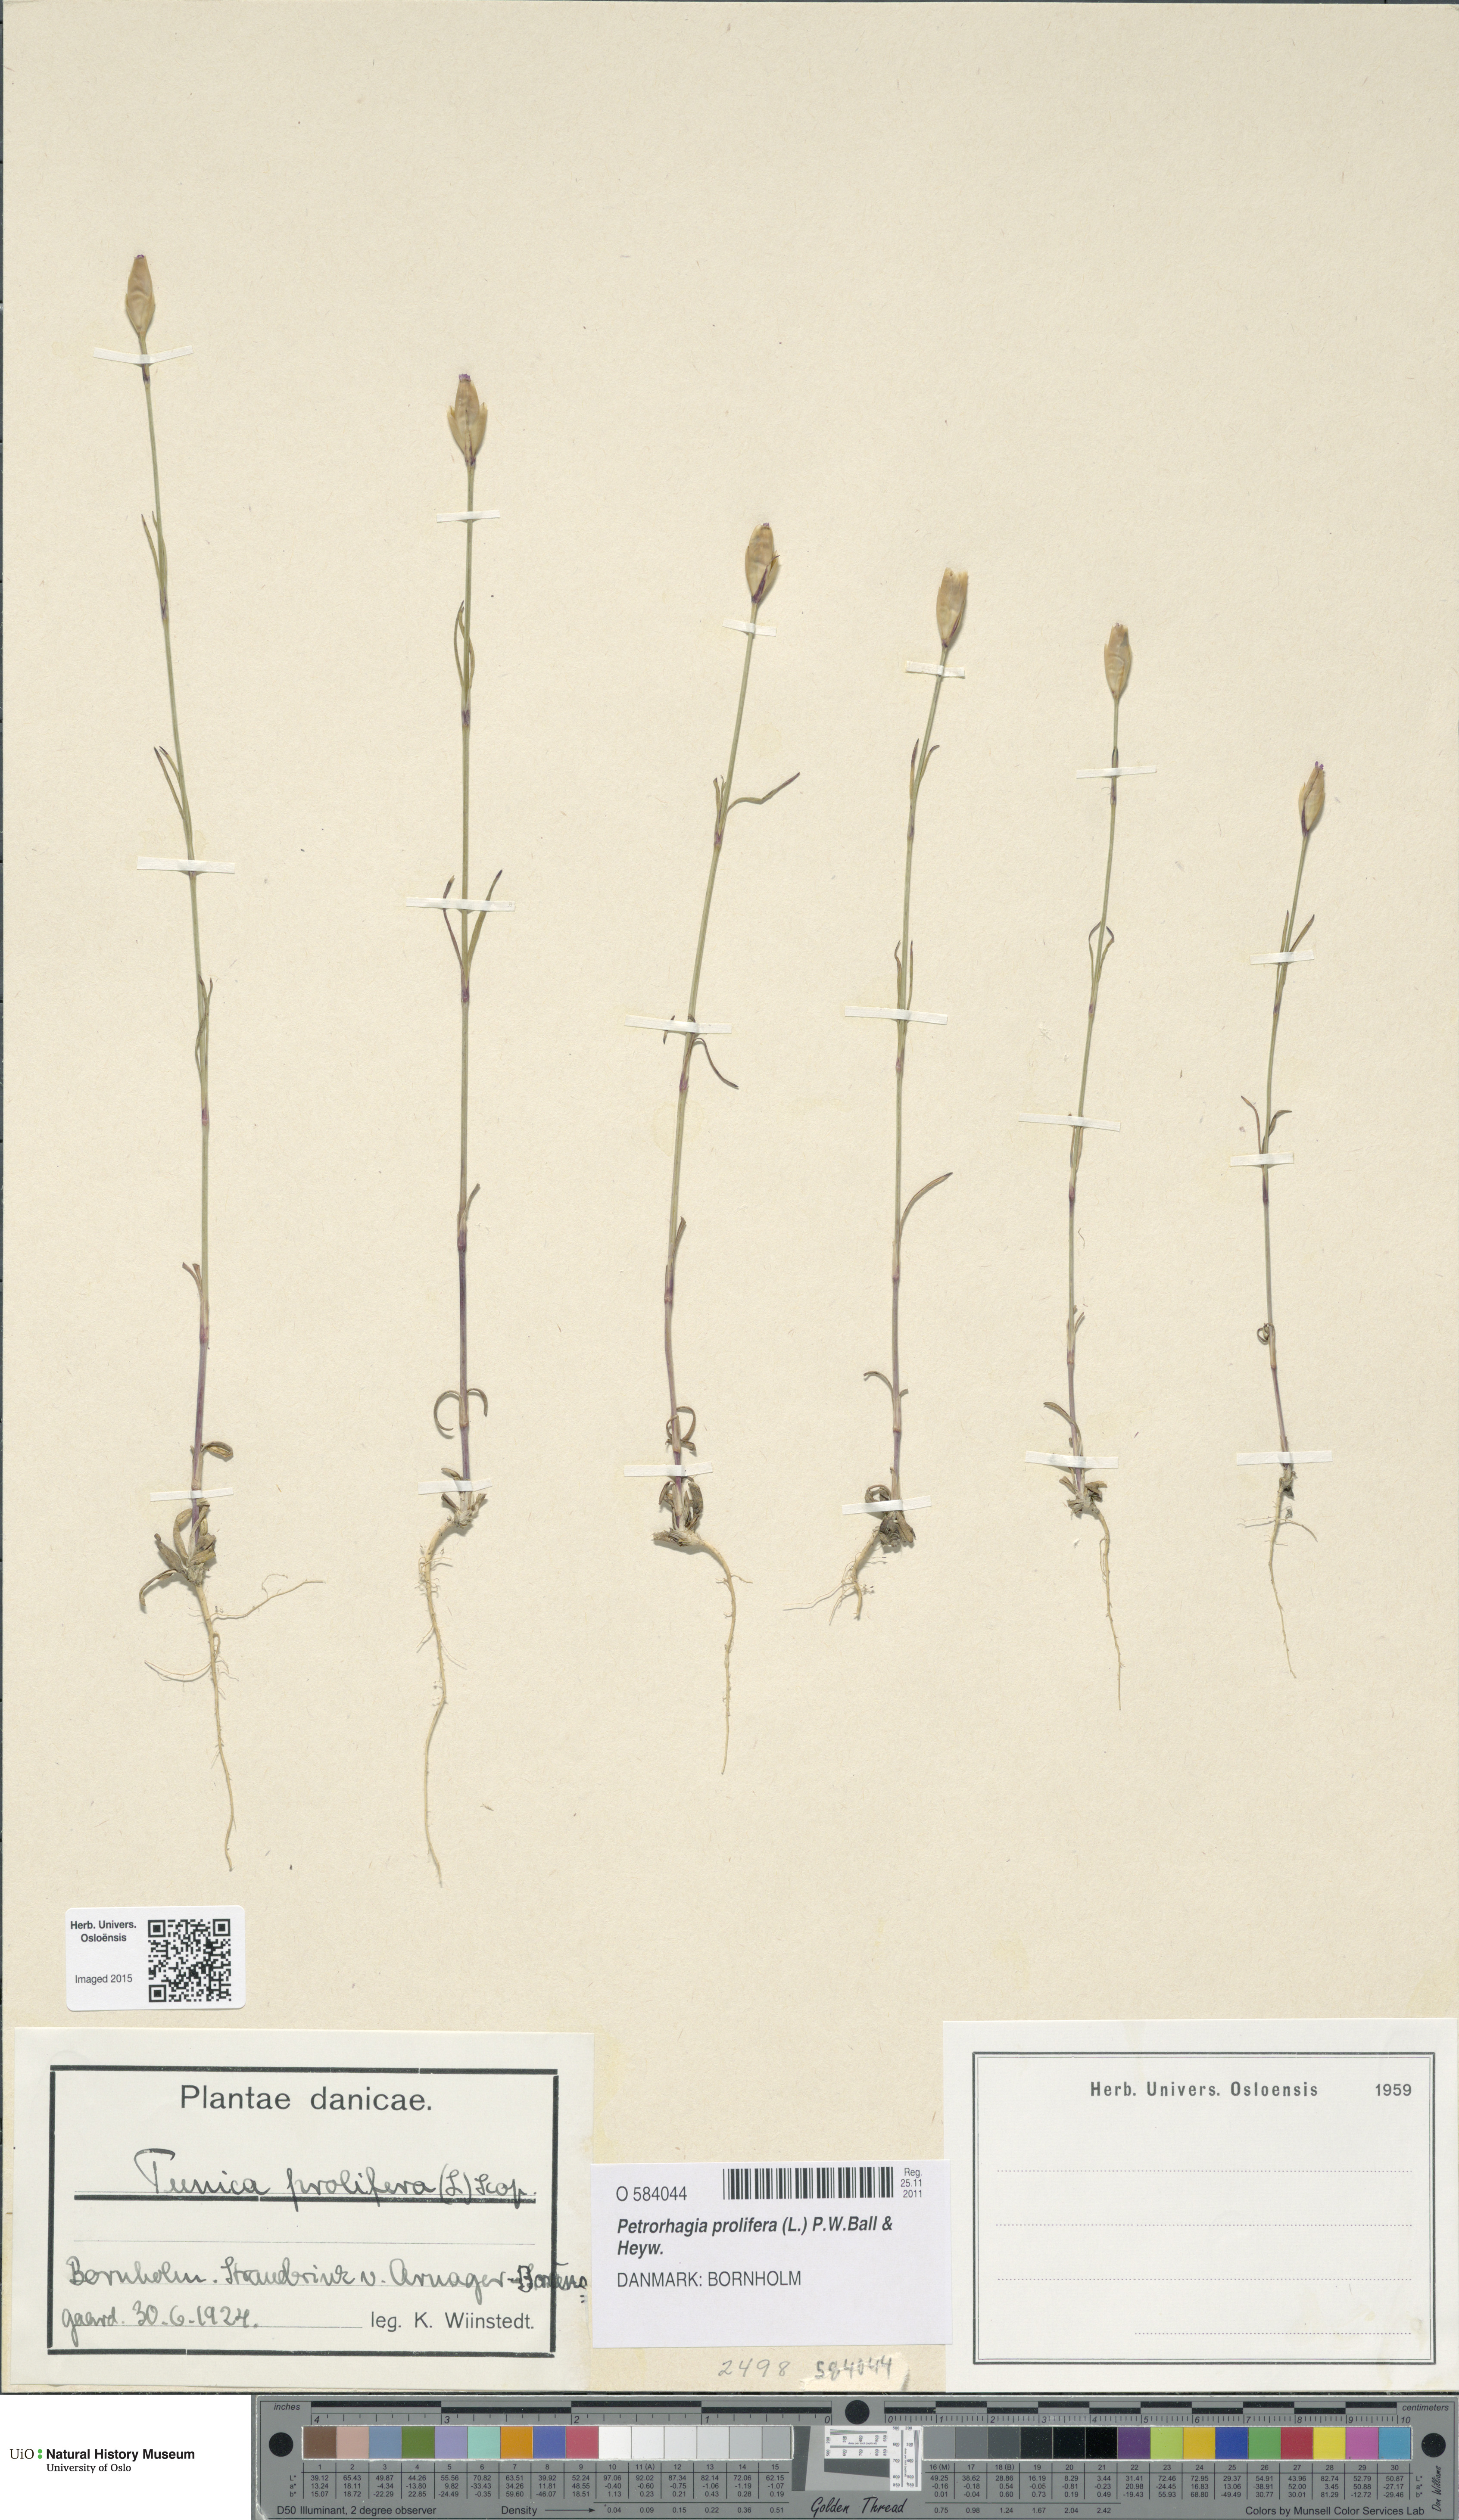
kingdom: Plantae
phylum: Tracheophyta
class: Magnoliopsida
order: Caryophyllales
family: Caryophyllaceae
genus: Petrorhagia
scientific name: Petrorhagia prolifera
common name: Proliferous pink
